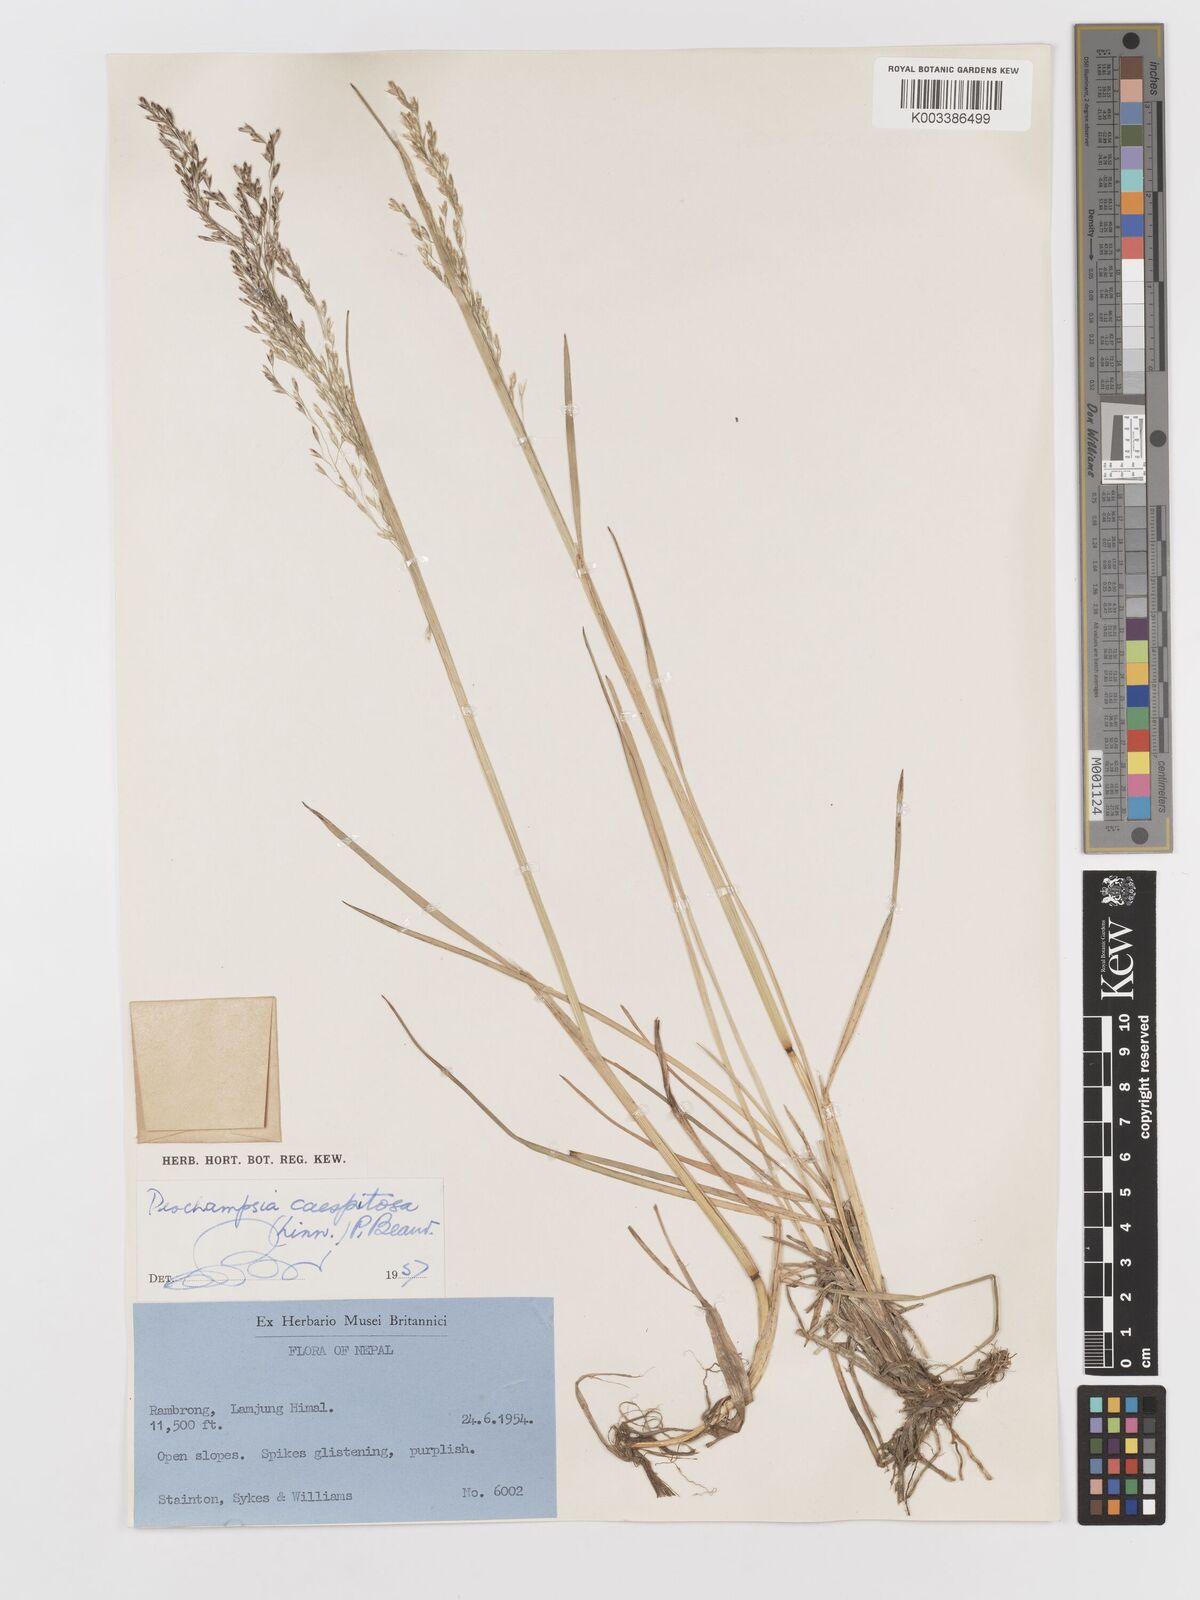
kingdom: Plantae
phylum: Tracheophyta
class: Liliopsida
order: Poales
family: Poaceae
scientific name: Poaceae
